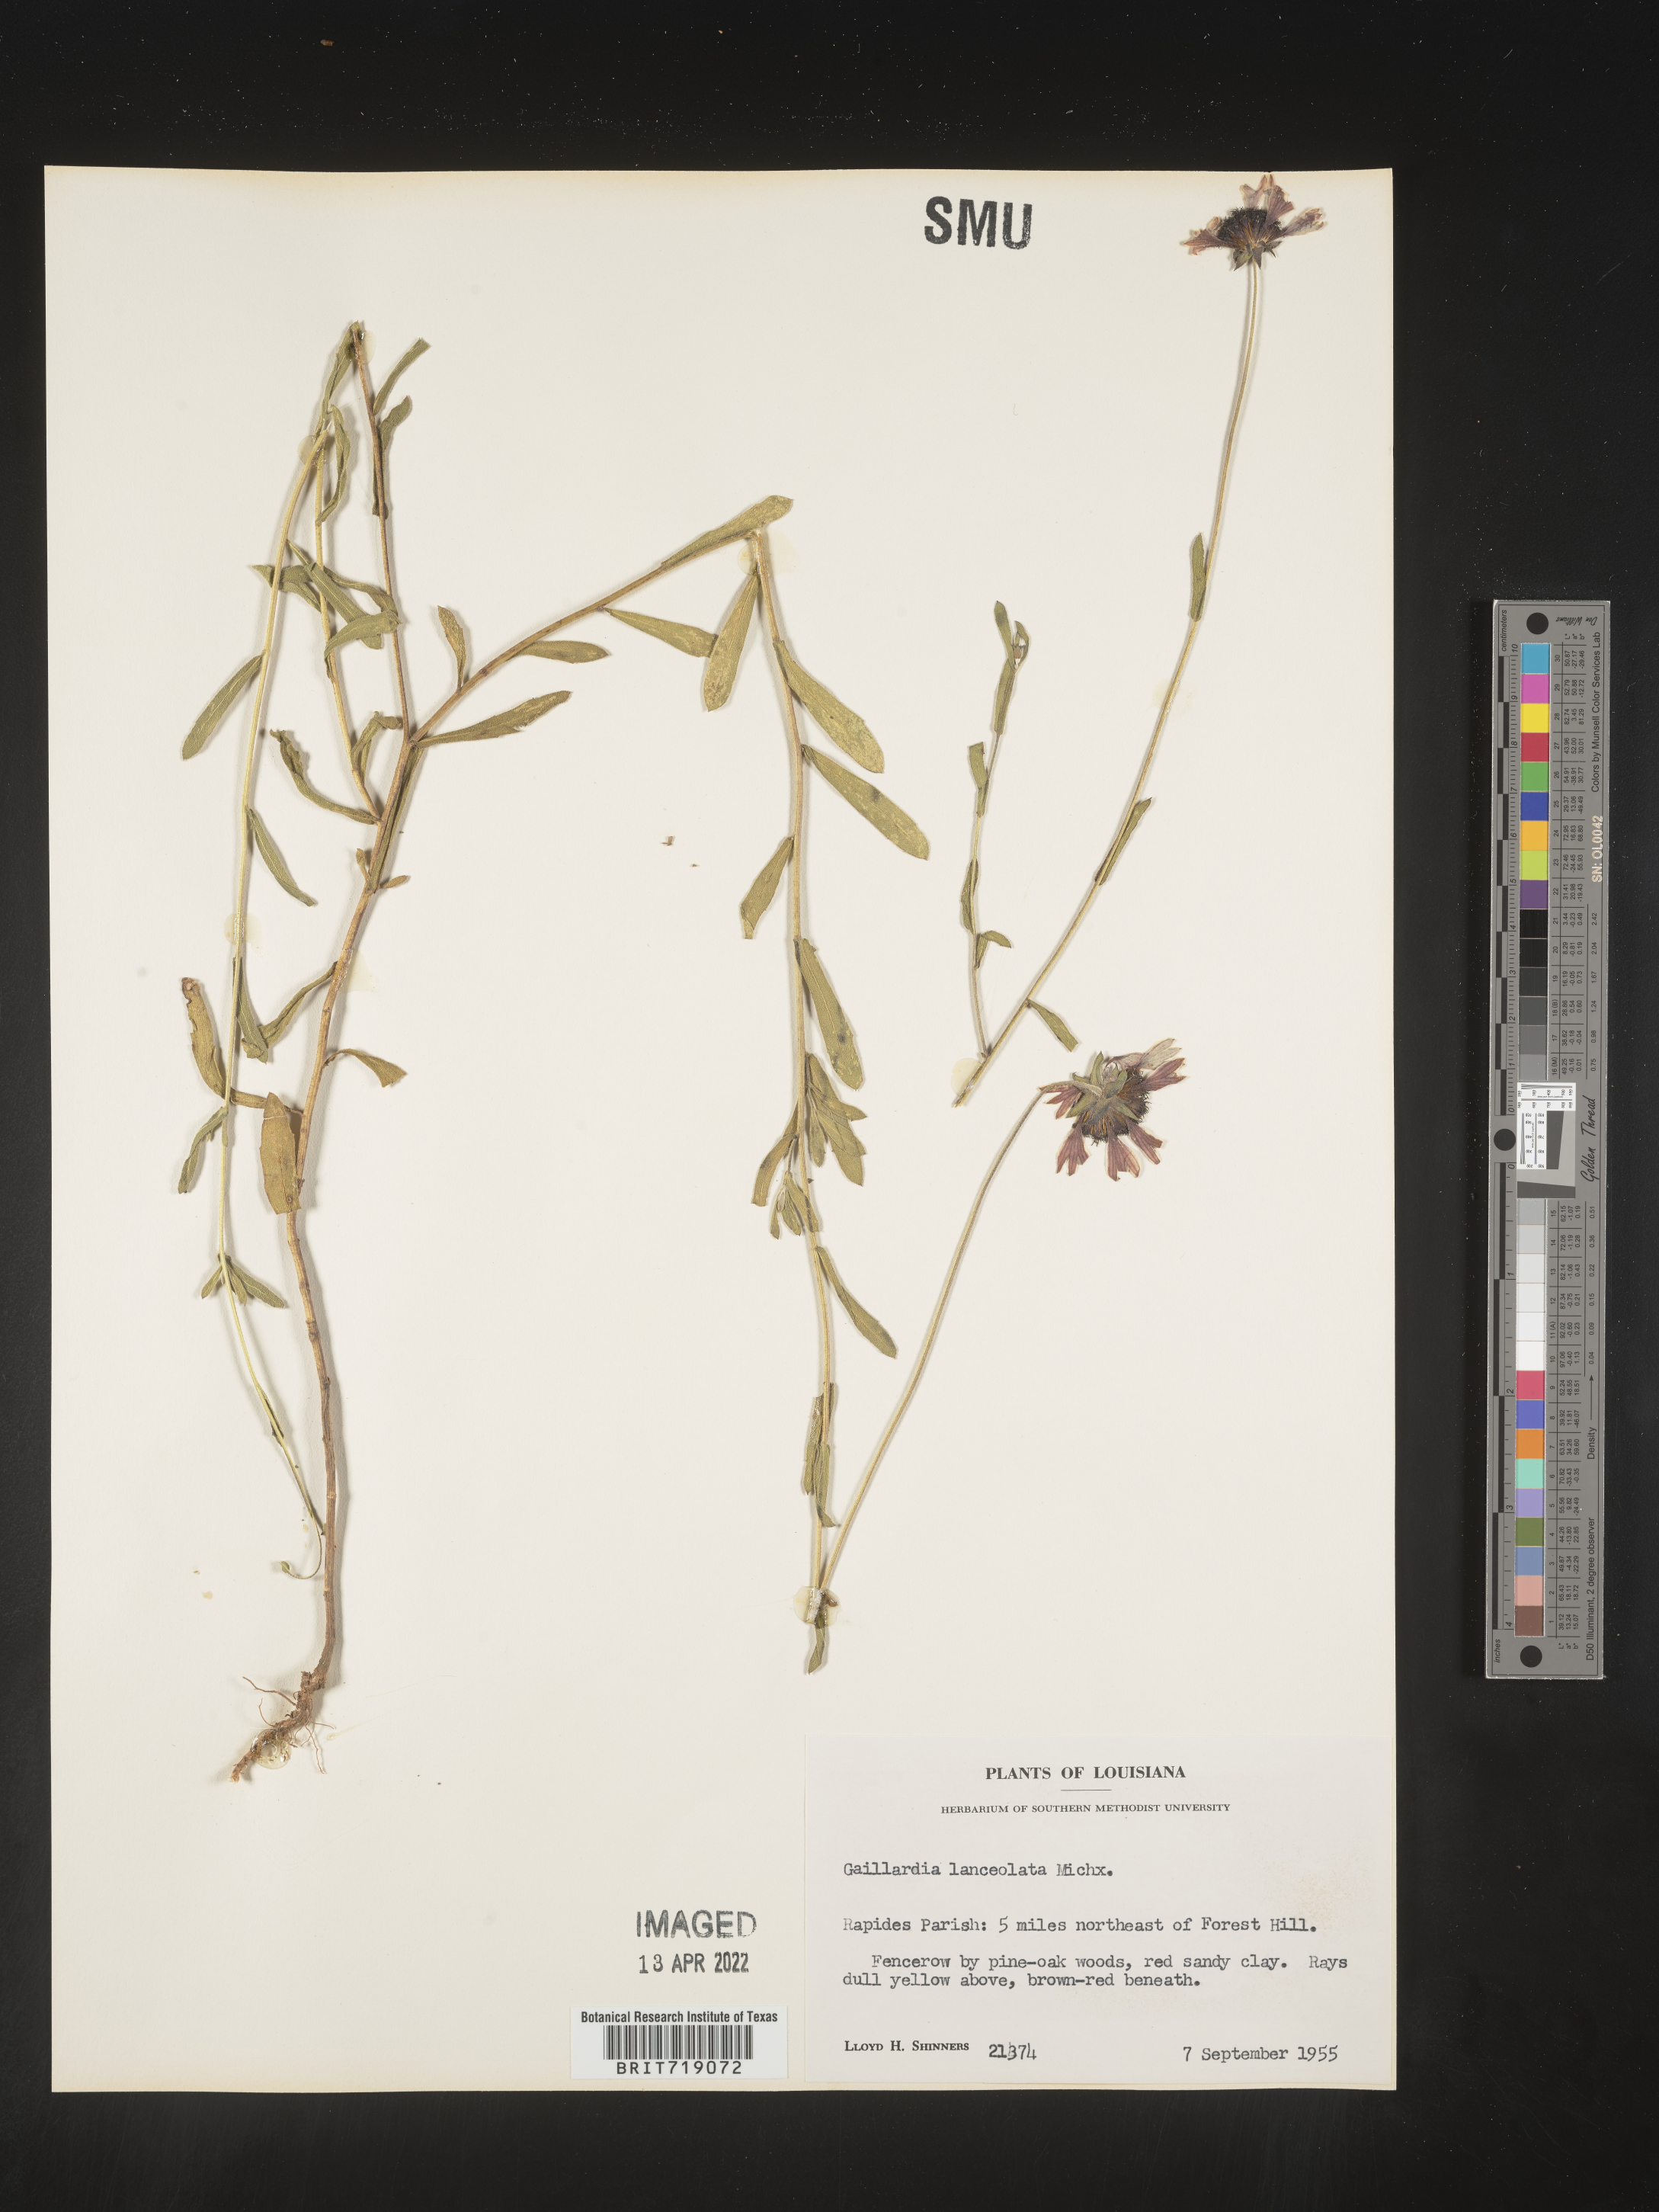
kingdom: Plantae
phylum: Tracheophyta
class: Magnoliopsida
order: Asterales
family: Asteraceae
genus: Gaillardia
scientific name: Gaillardia aestivalis
